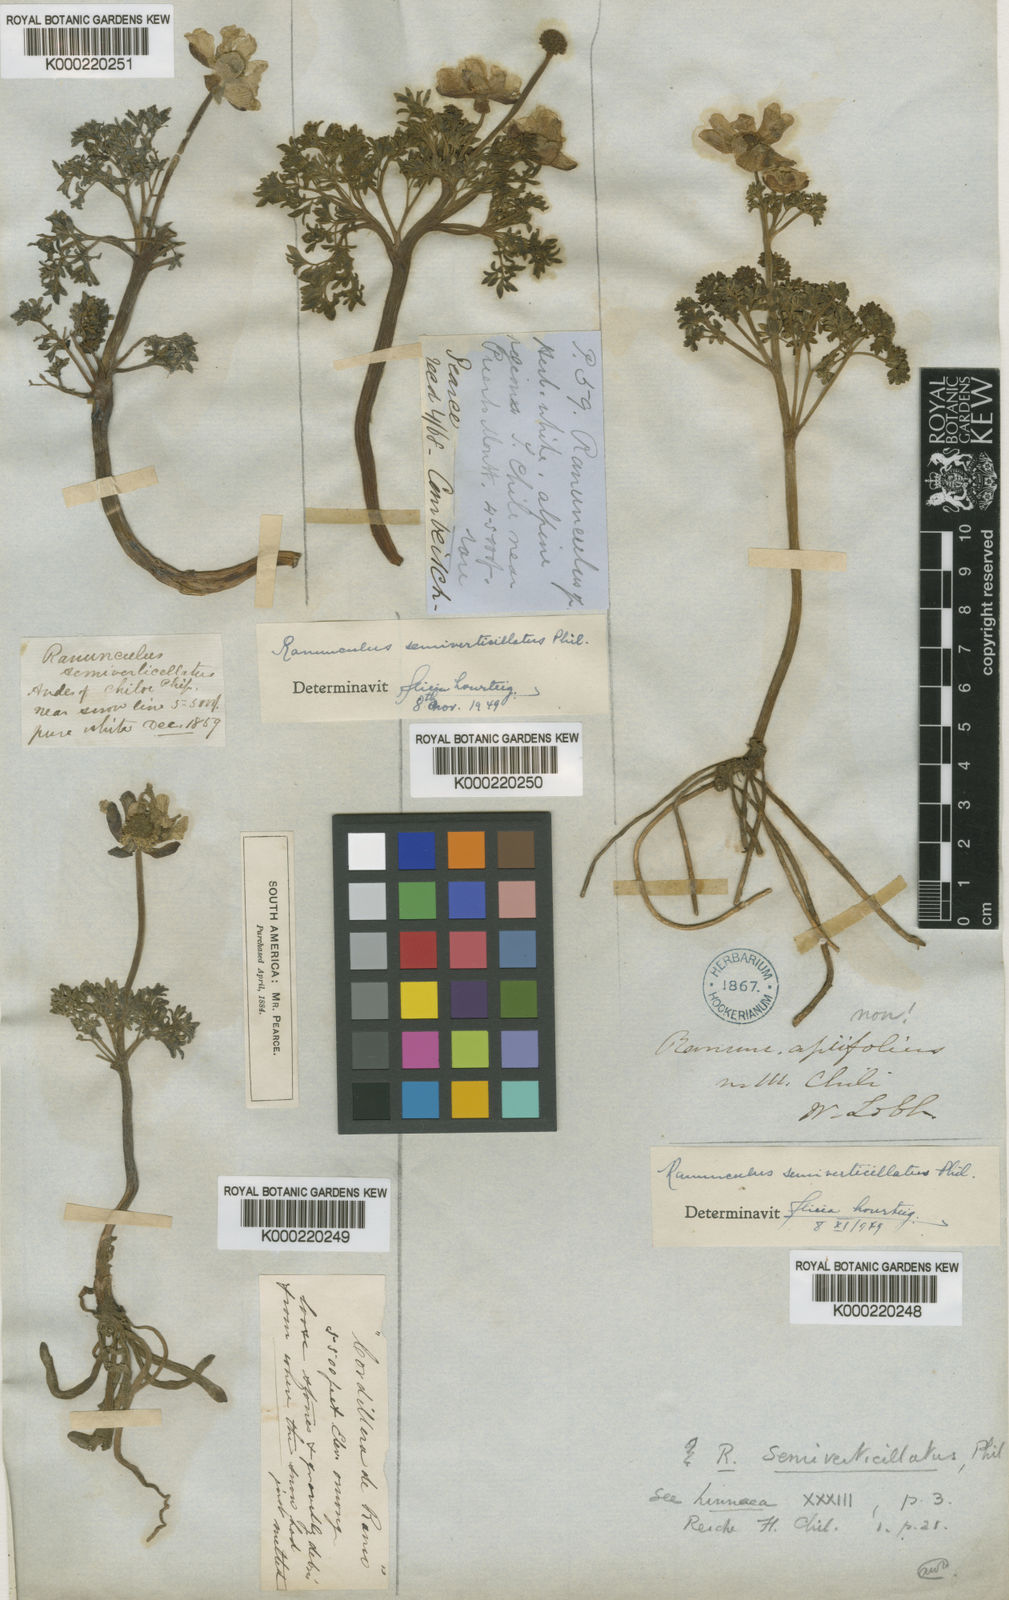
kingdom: Plantae
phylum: Tracheophyta
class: Magnoliopsida
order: Ranunculales
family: Ranunculaceae
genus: Callianthemoides
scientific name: Callianthemoides semiverticillatus
